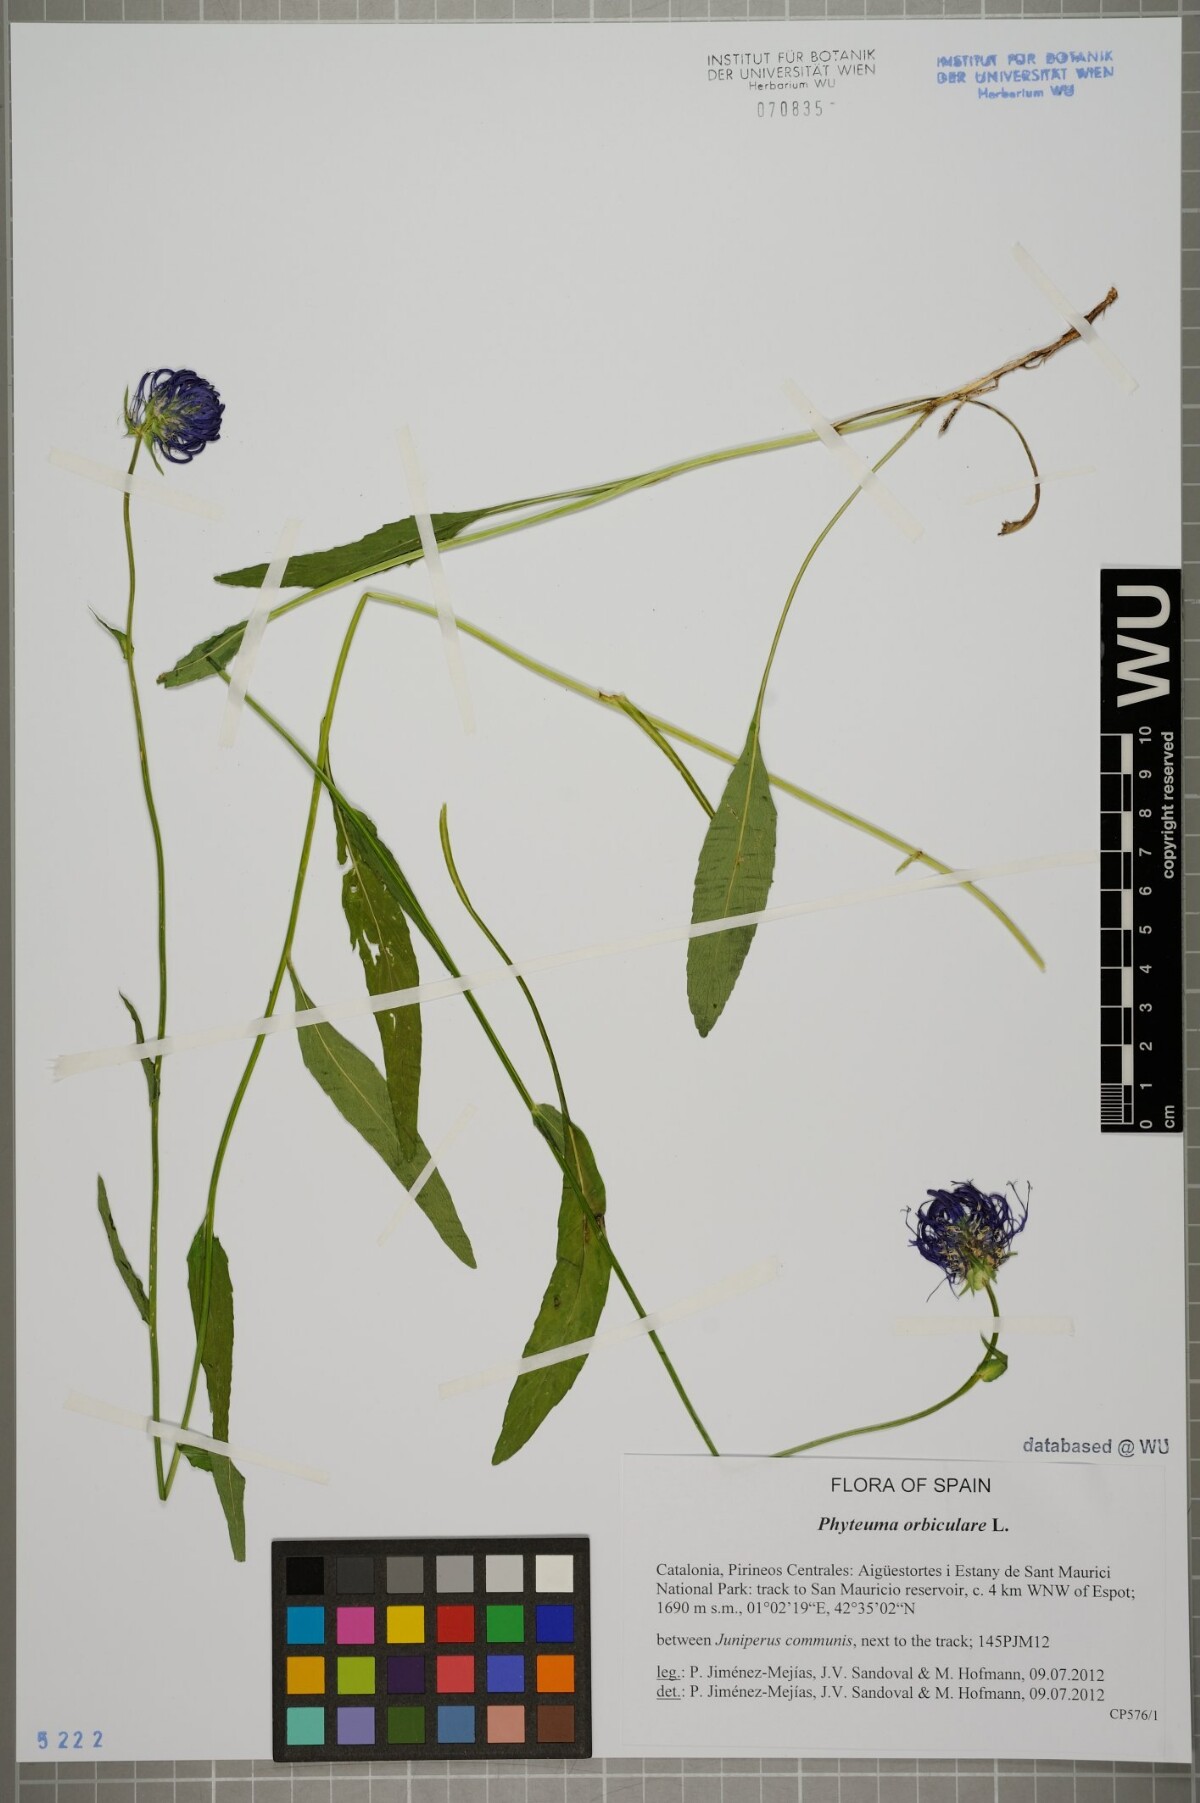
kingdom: Plantae
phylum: Tracheophyta
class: Magnoliopsida
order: Asterales
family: Campanulaceae
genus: Phyteuma
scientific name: Phyteuma orbiculare
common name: Round-headed rampion
